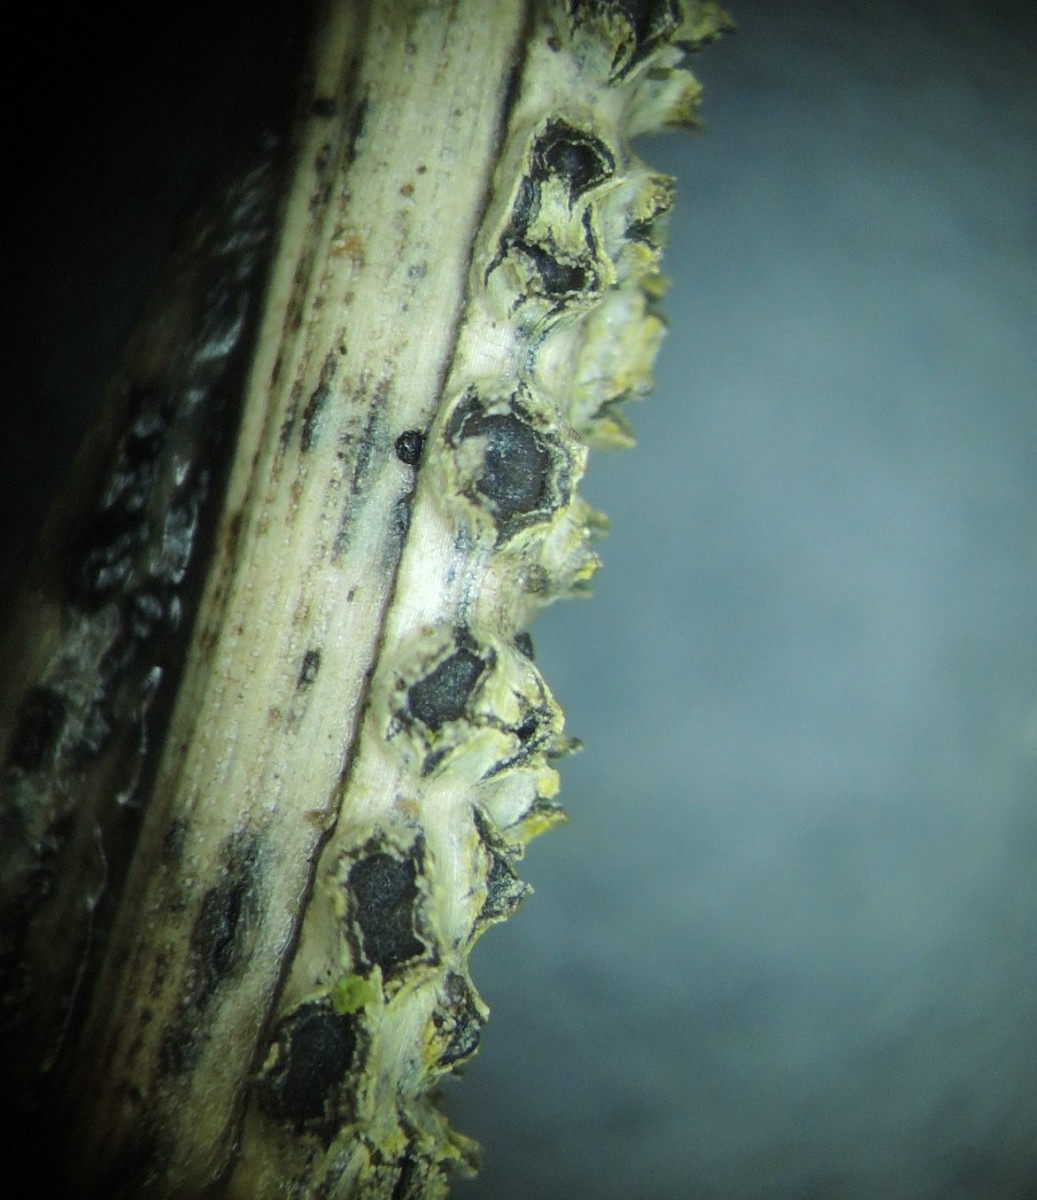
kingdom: Fungi
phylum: Ascomycota
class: Leotiomycetes
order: Phacidiales
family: Phacidiaceae
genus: Phacidium
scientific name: Phacidium lacerum
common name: nåle-tandskive
